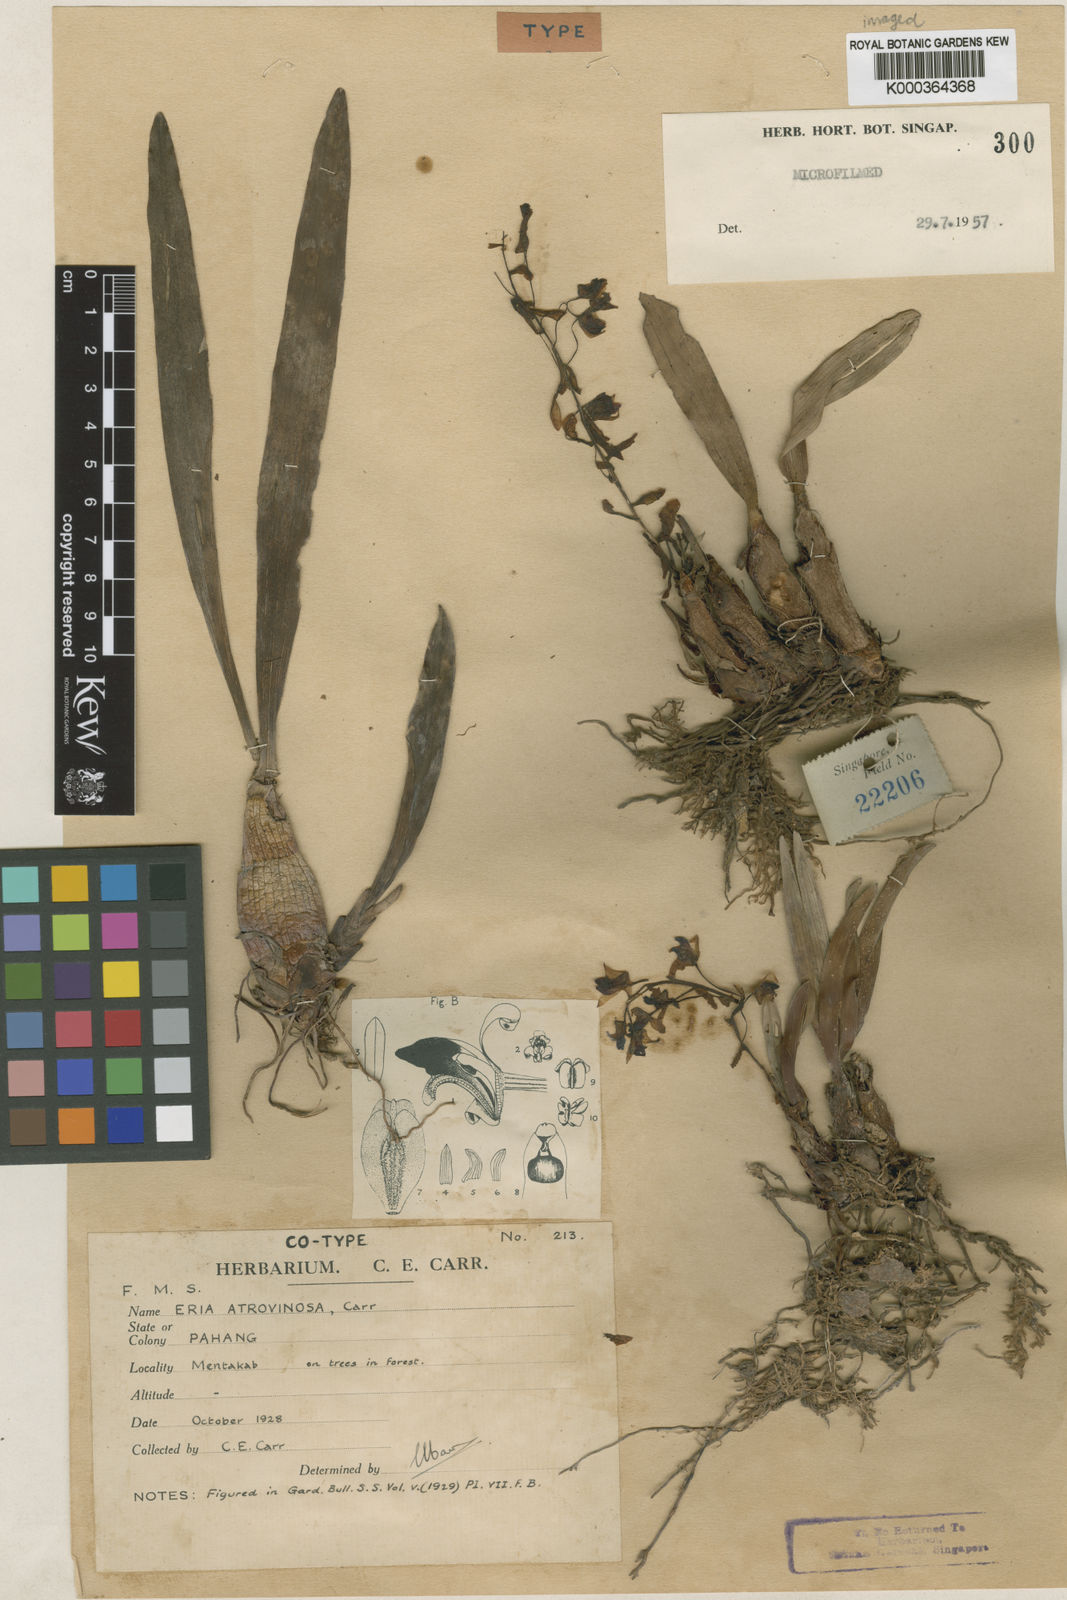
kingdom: Plantae
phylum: Tracheophyta
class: Liliopsida
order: Asparagales
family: Orchidaceae
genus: Pinalia
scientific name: Pinalia atrovinosa
